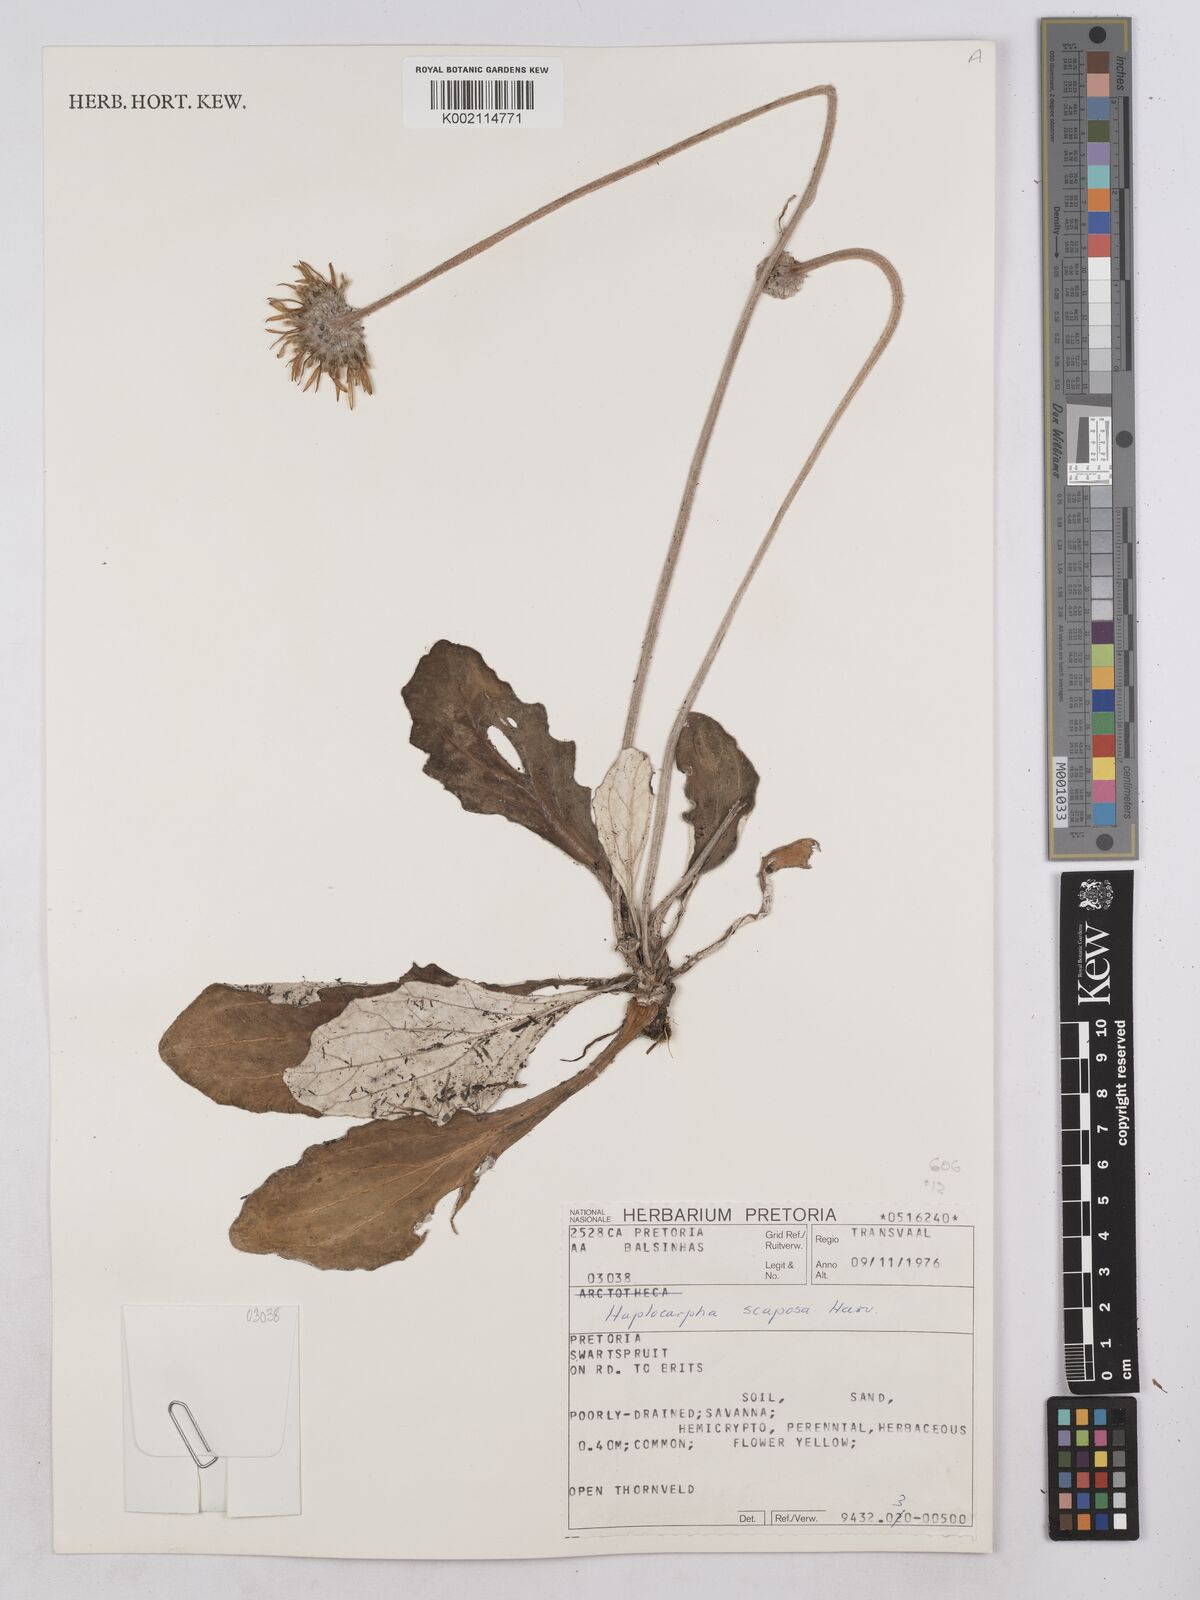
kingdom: Plantae
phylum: Tracheophyta
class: Magnoliopsida
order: Asterales
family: Asteraceae
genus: Haplocarpha
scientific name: Haplocarpha scaposa
